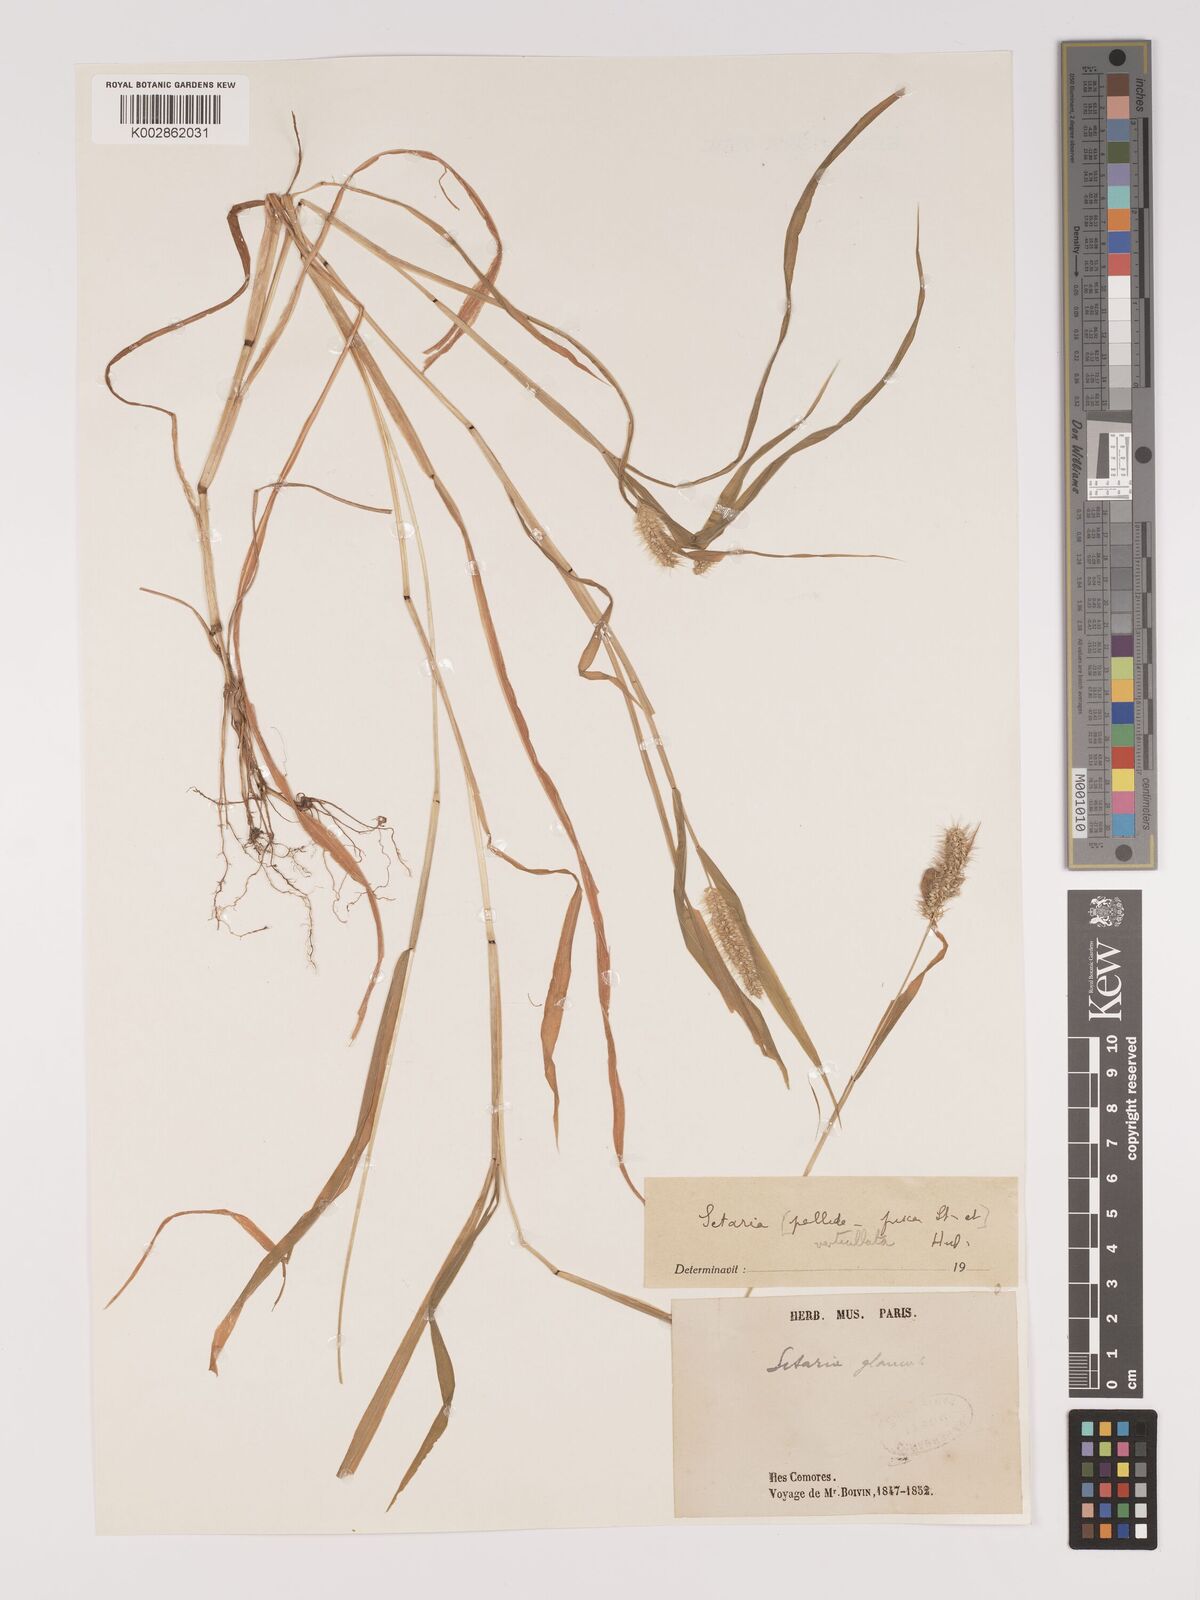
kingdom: Plantae
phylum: Tracheophyta
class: Liliopsida
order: Poales
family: Poaceae
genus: Setaria
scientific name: Setaria verticillata
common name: Hooked bristlegrass
